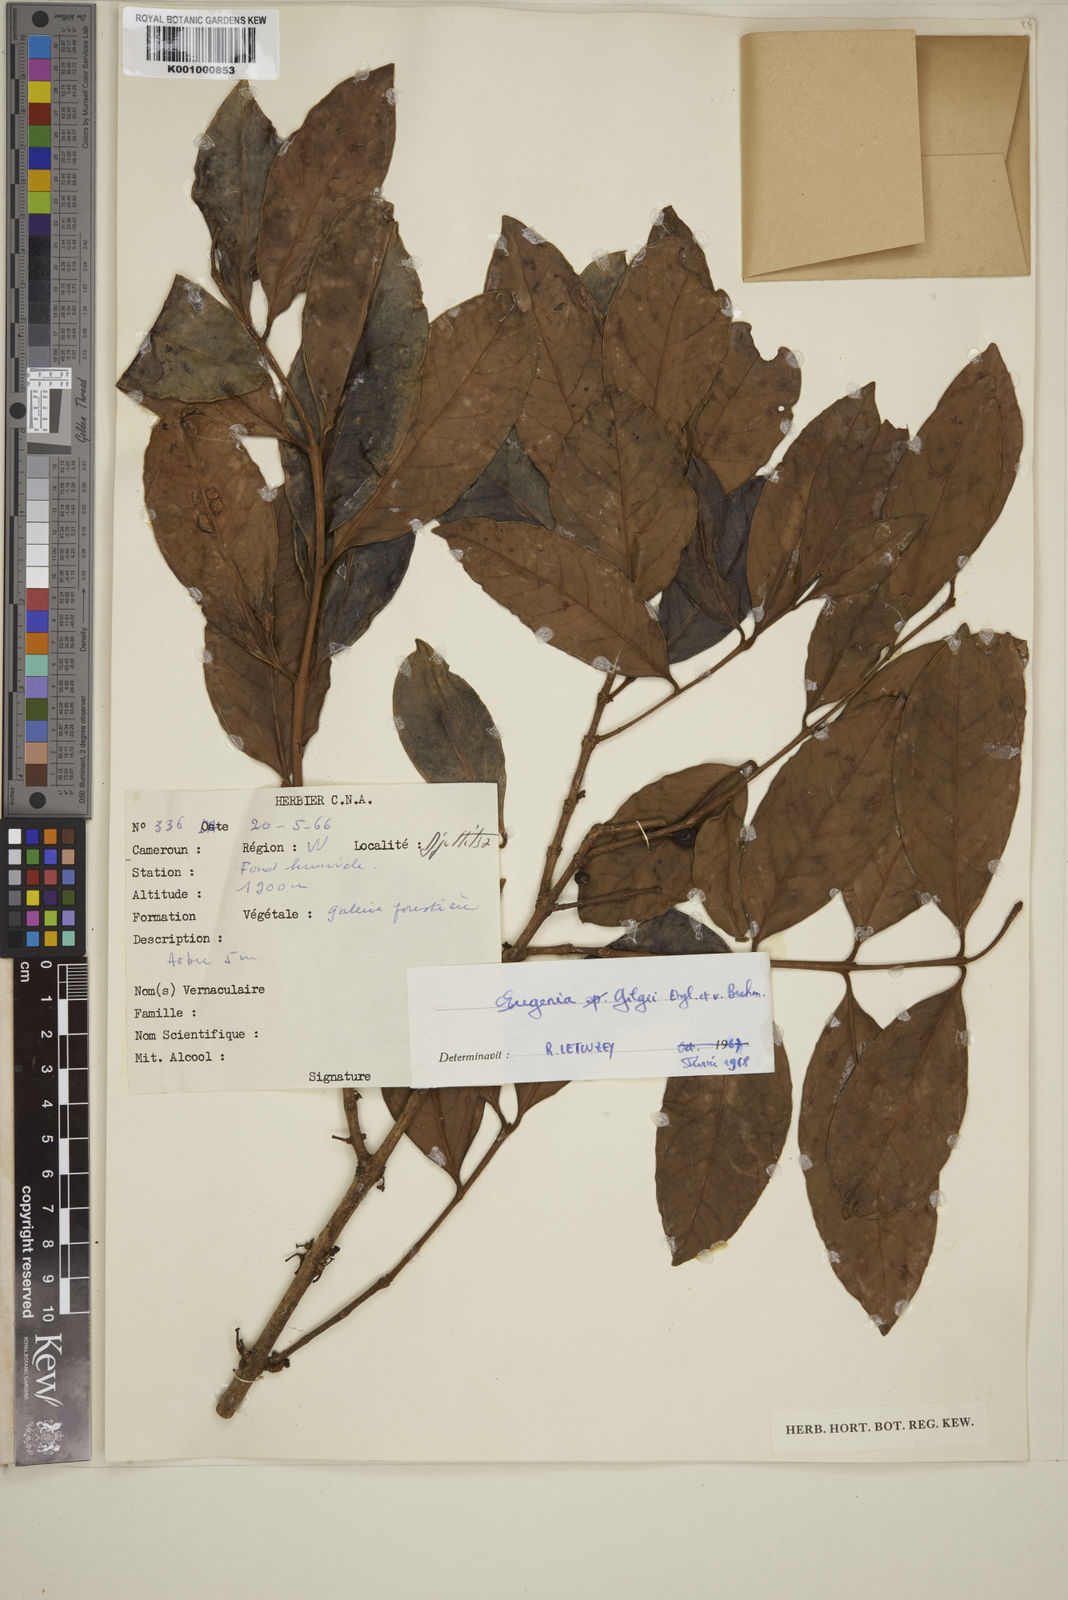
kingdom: Plantae
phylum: Tracheophyta
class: Magnoliopsida
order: Myrtales
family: Myrtaceae
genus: Eugenia
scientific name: Eugenia gilgii
